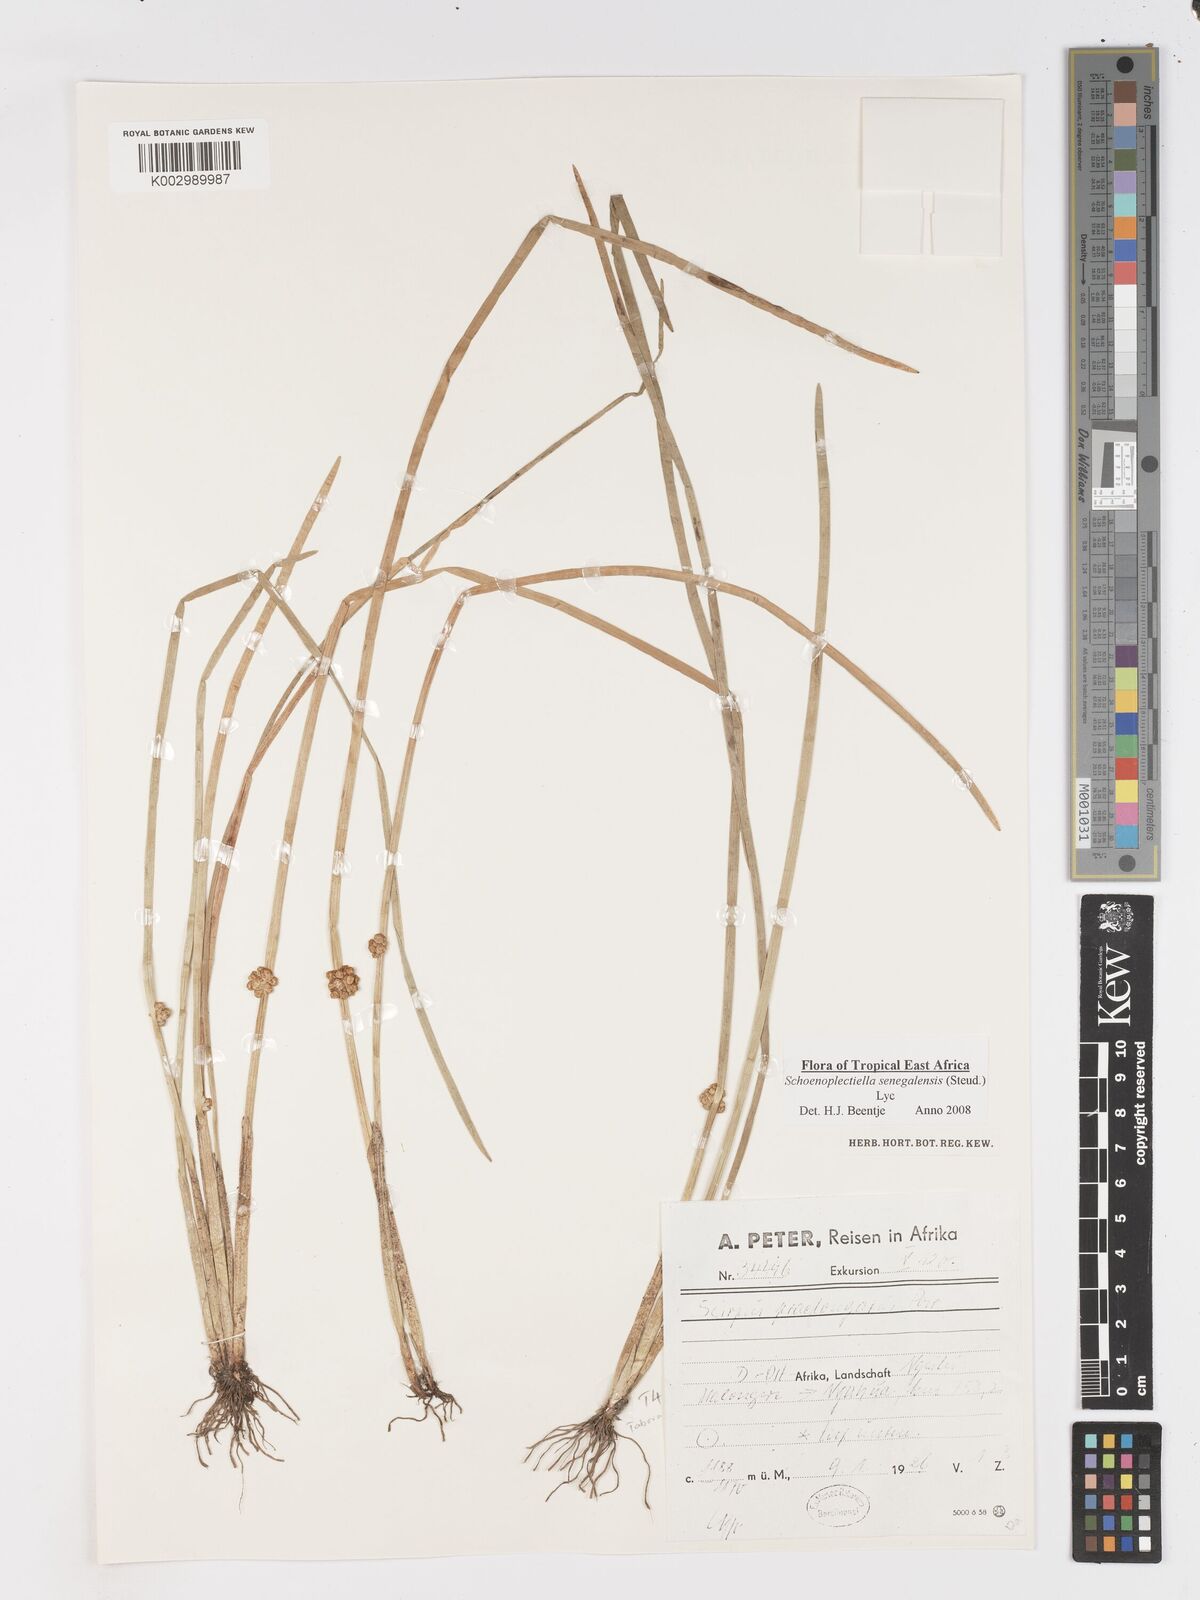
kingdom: Plantae
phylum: Tracheophyta
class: Liliopsida
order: Poales
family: Cyperaceae
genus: Schoenoplectiella
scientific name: Schoenoplectiella senegalensis
